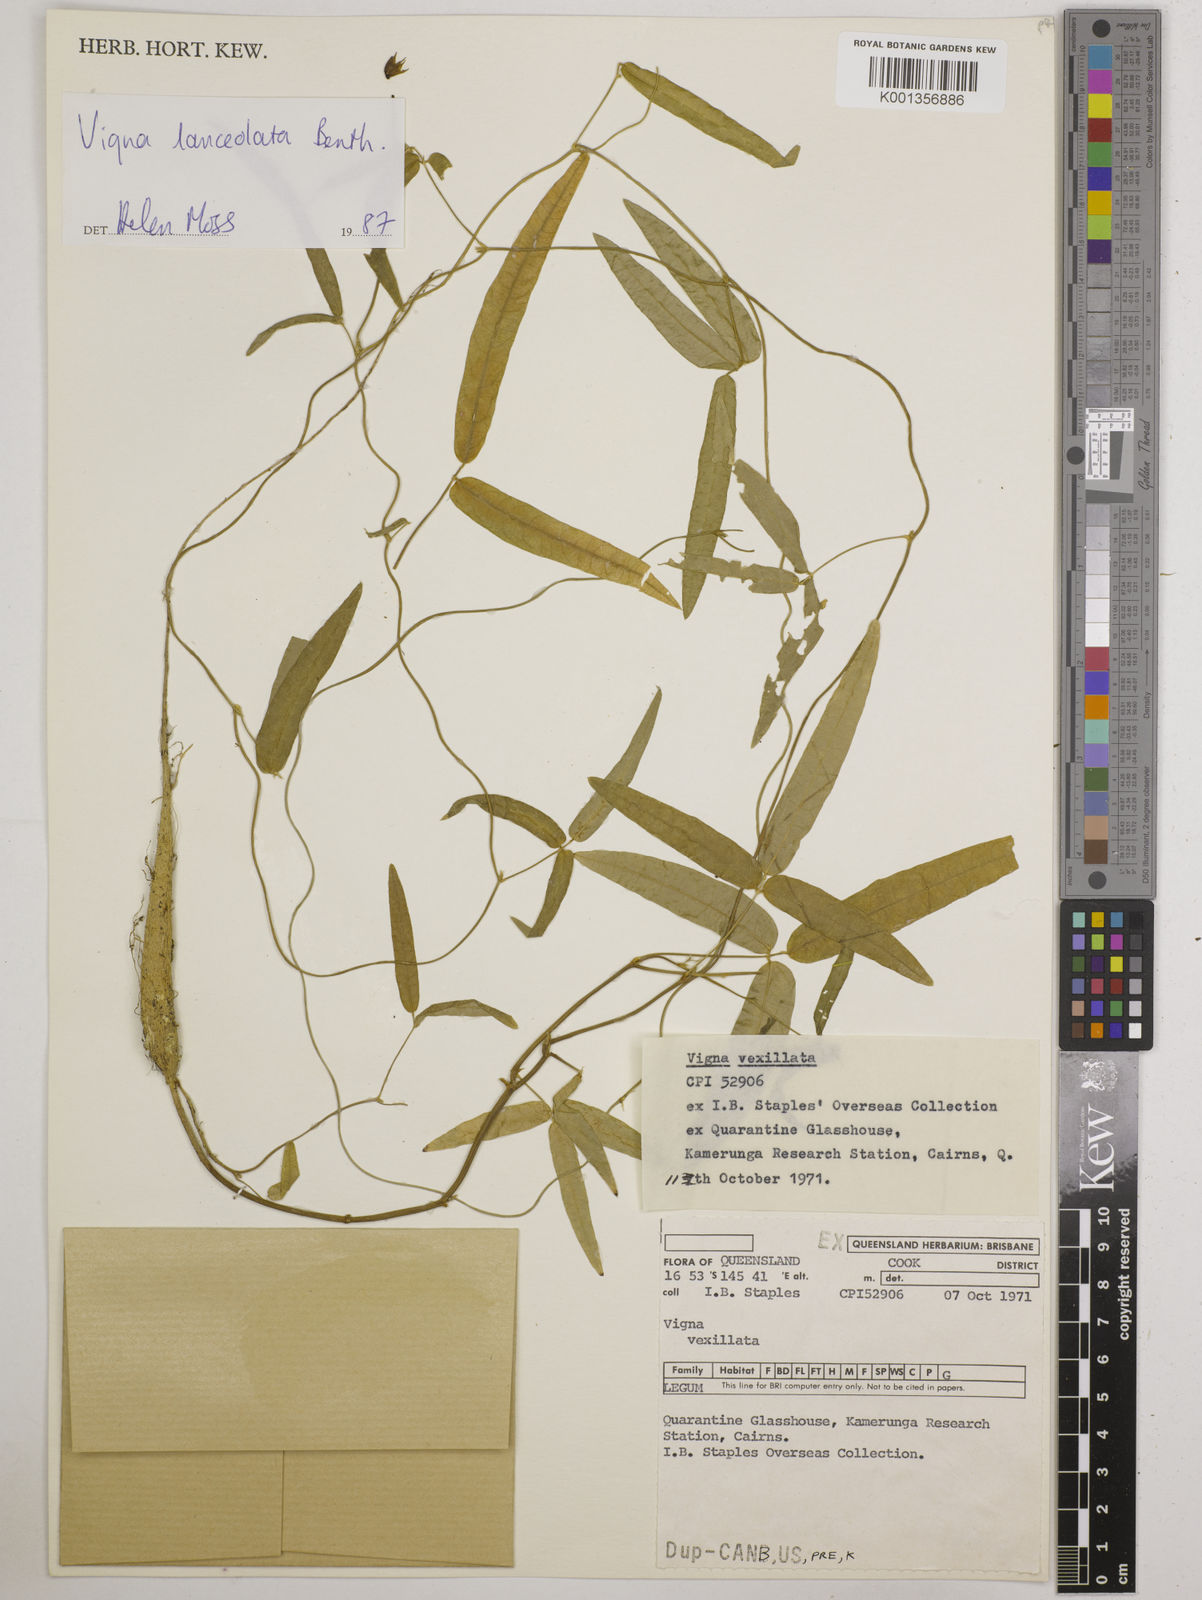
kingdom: Plantae
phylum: Tracheophyta
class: Magnoliopsida
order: Fabales
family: Fabaceae
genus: Vigna
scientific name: Vigna vexillata
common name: Zombi pea
